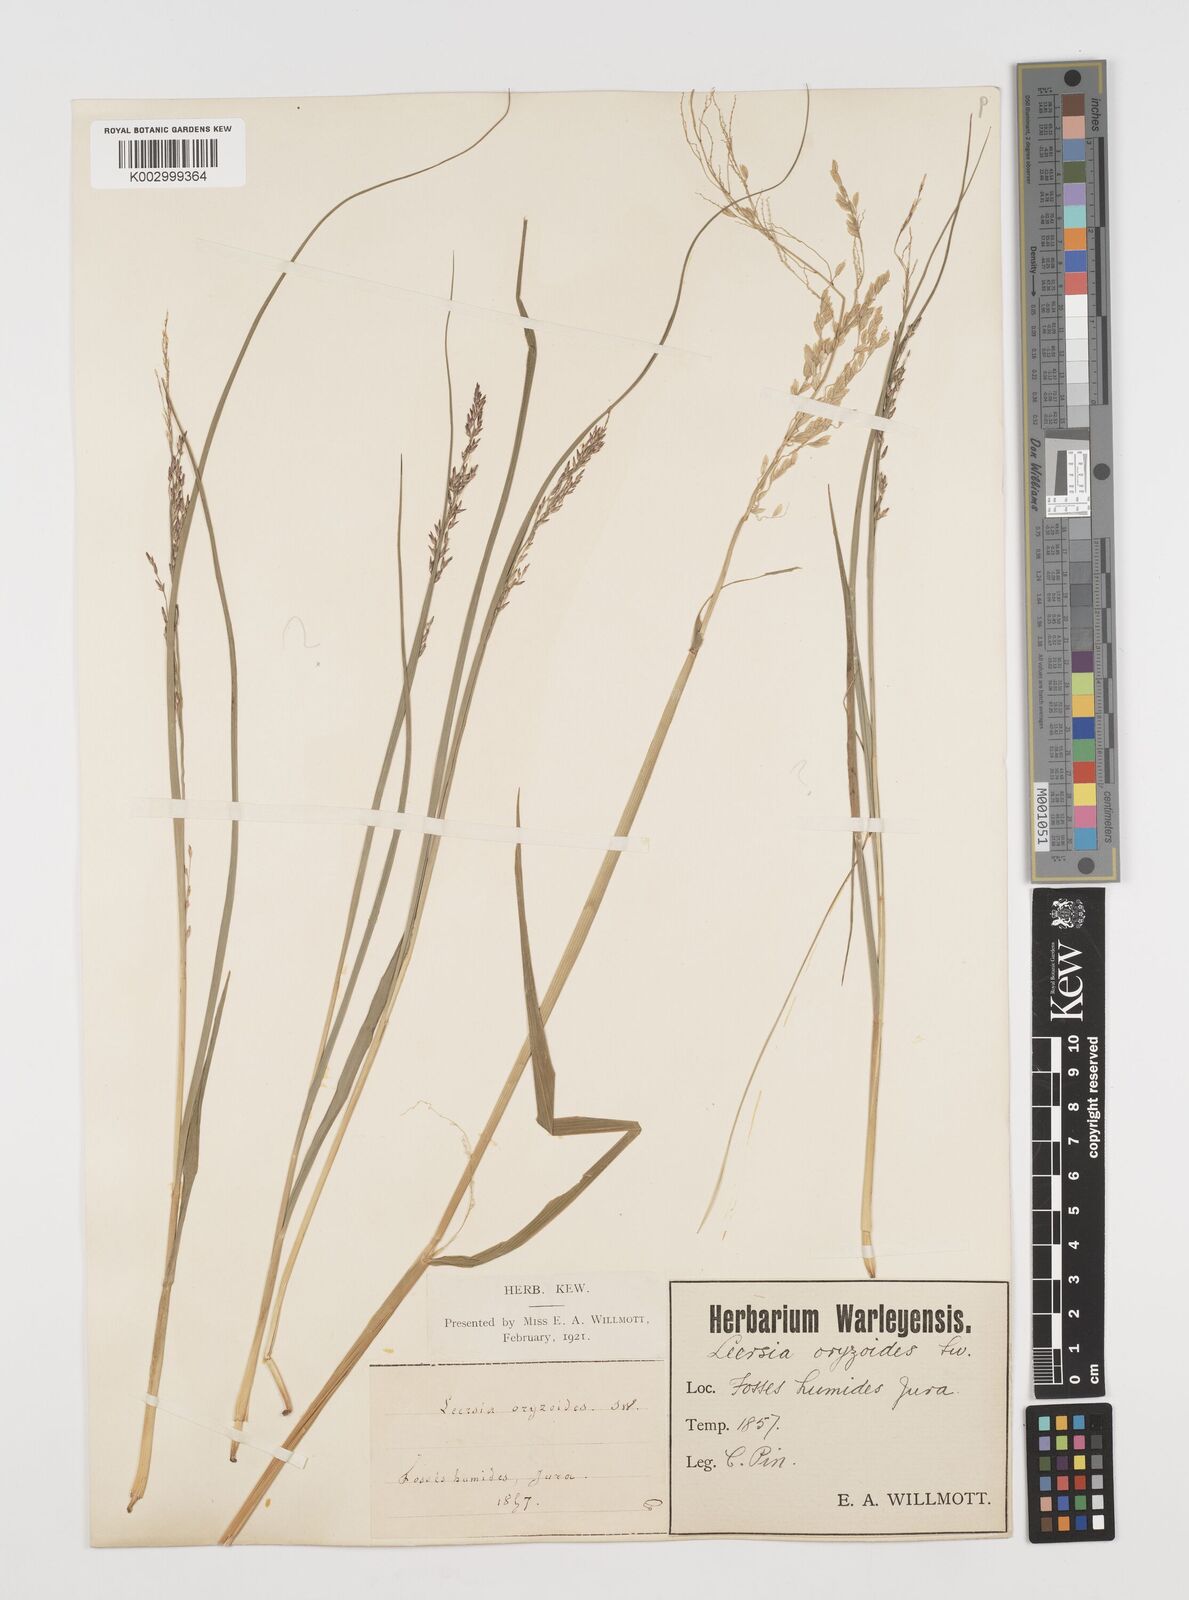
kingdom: Plantae
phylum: Tracheophyta
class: Liliopsida
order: Poales
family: Poaceae
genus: Leersia
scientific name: Leersia oryzoides
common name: Cut-grass
